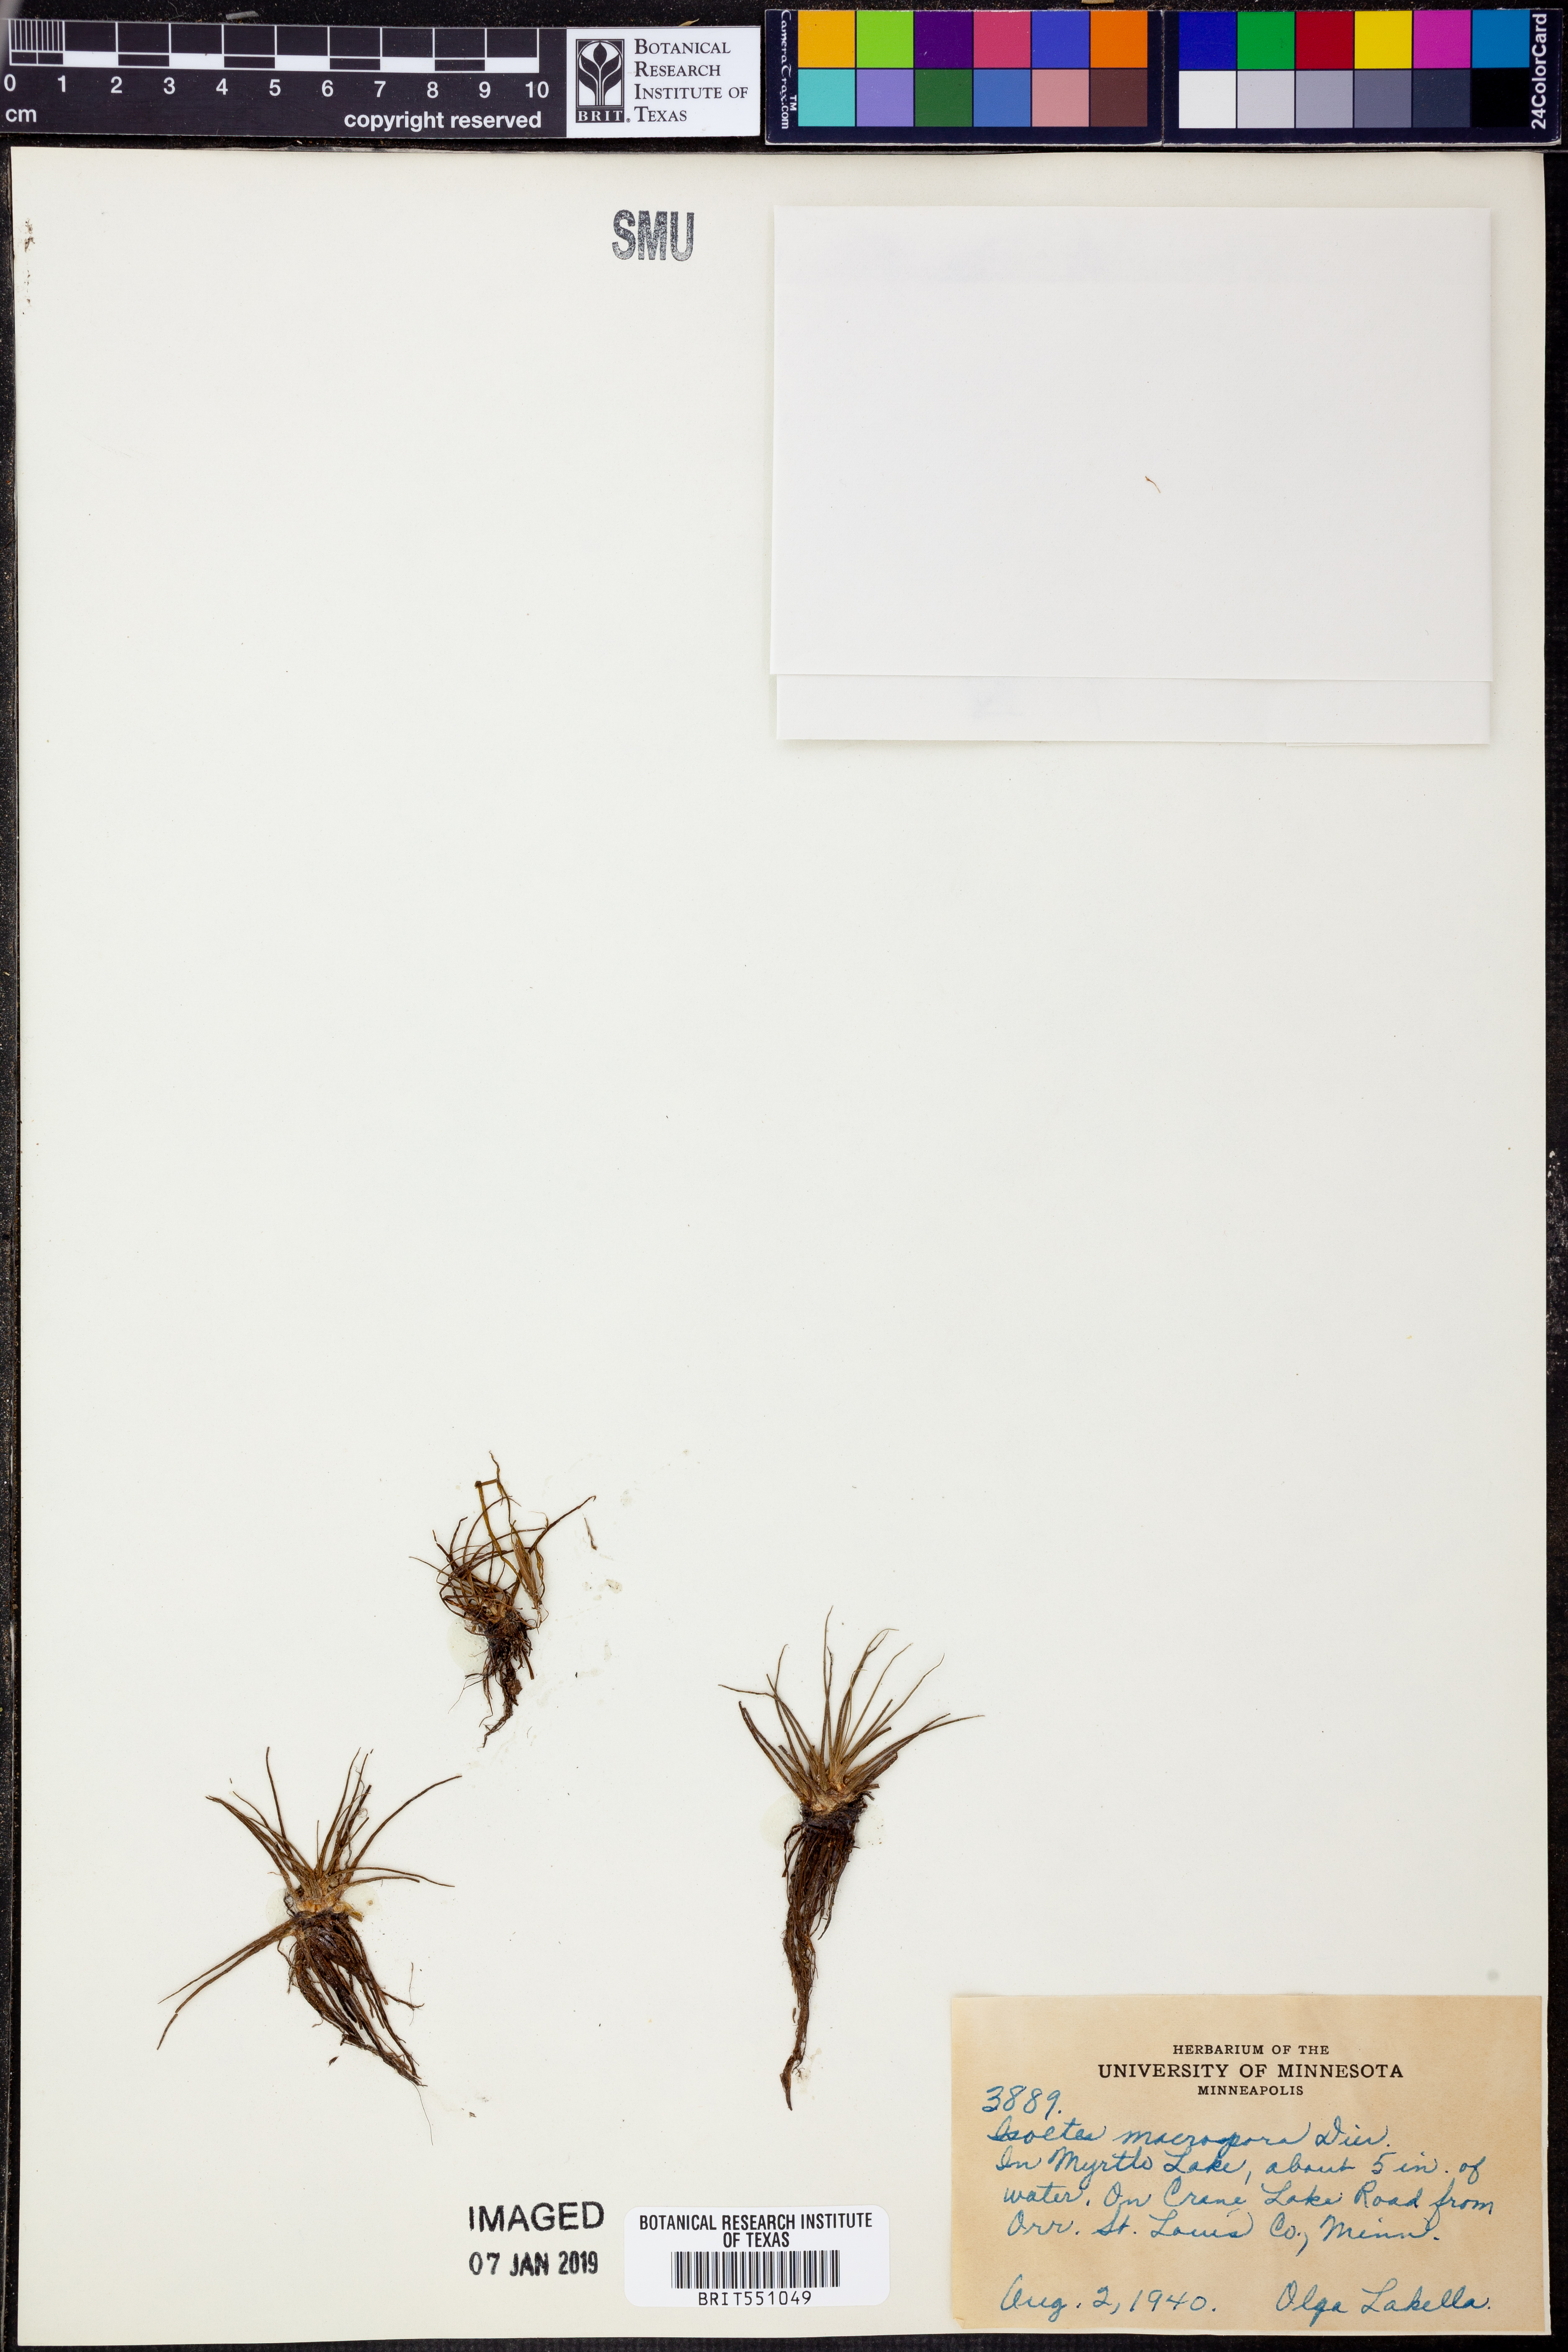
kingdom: Plantae
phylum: Tracheophyta
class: Lycopodiopsida
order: Isoetales
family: Isoetaceae
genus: Isoetes
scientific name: Isoetes lacustris
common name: Common quillwort
